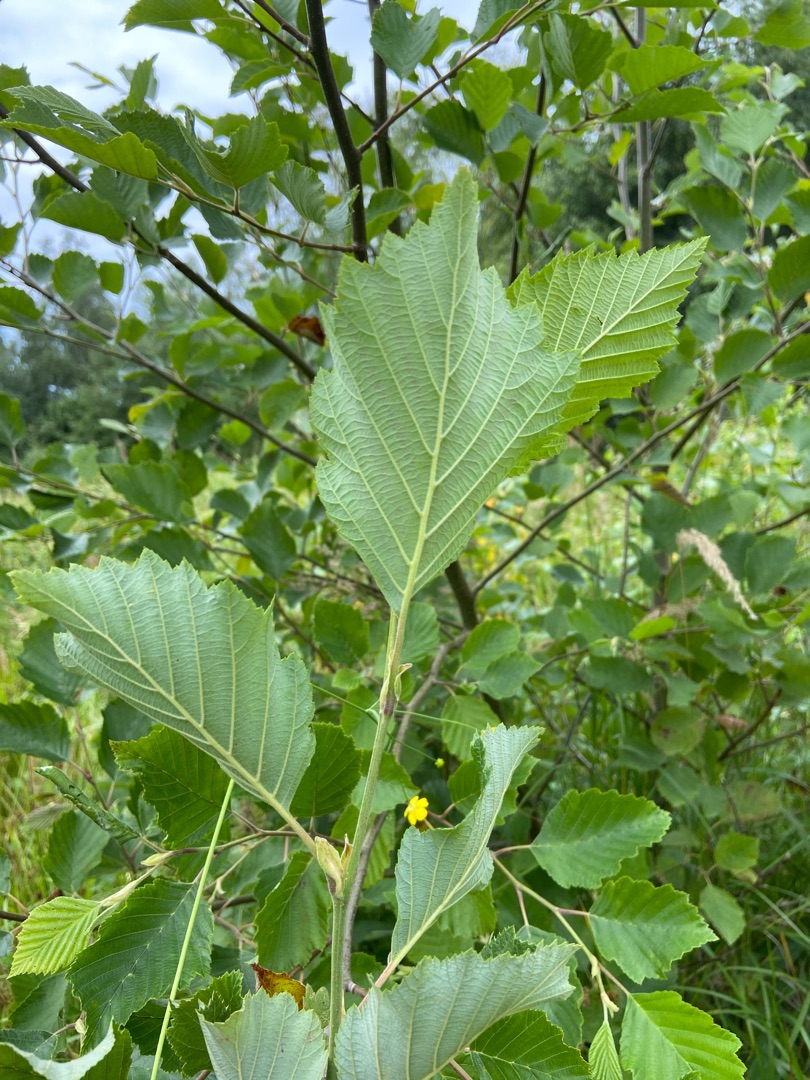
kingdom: Plantae
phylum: Tracheophyta
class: Magnoliopsida
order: Fagales
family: Betulaceae
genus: Alnus
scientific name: Alnus incana
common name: Grå-el/hvid-el
